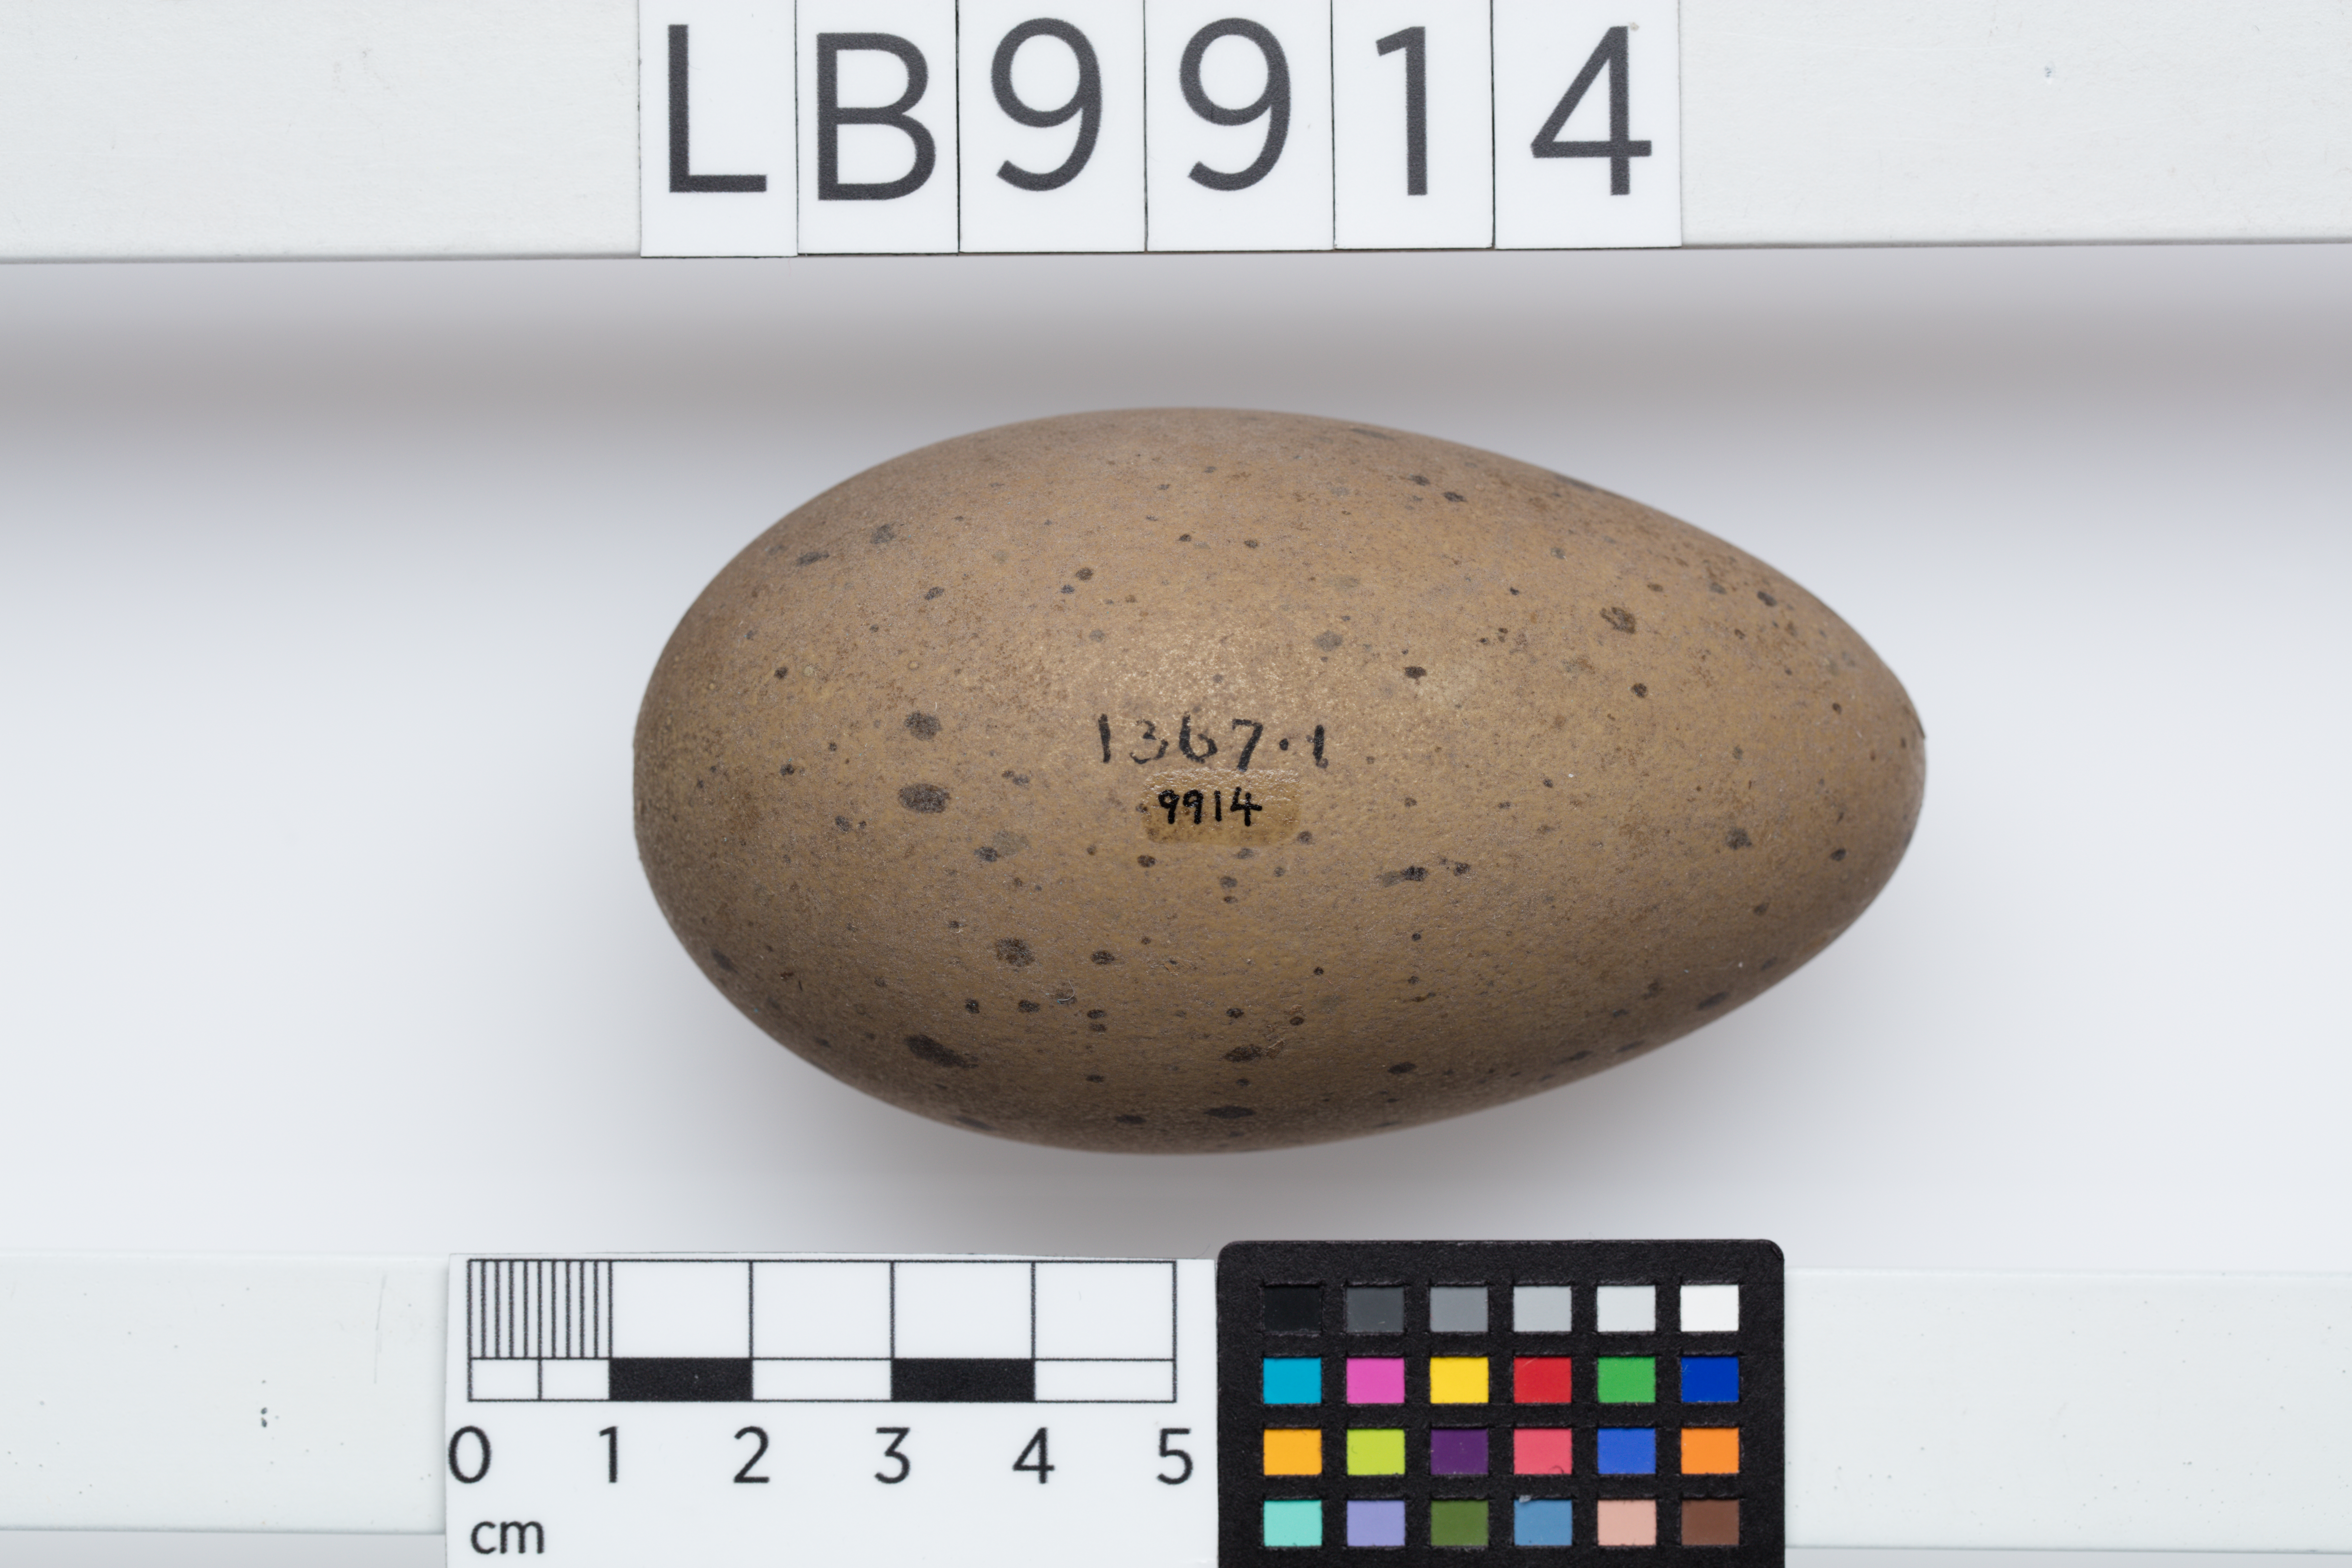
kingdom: Animalia
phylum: Chordata
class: Aves
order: Gaviiformes
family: Gaviidae
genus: Gavia
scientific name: Gavia arctica
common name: Black-throated loon
